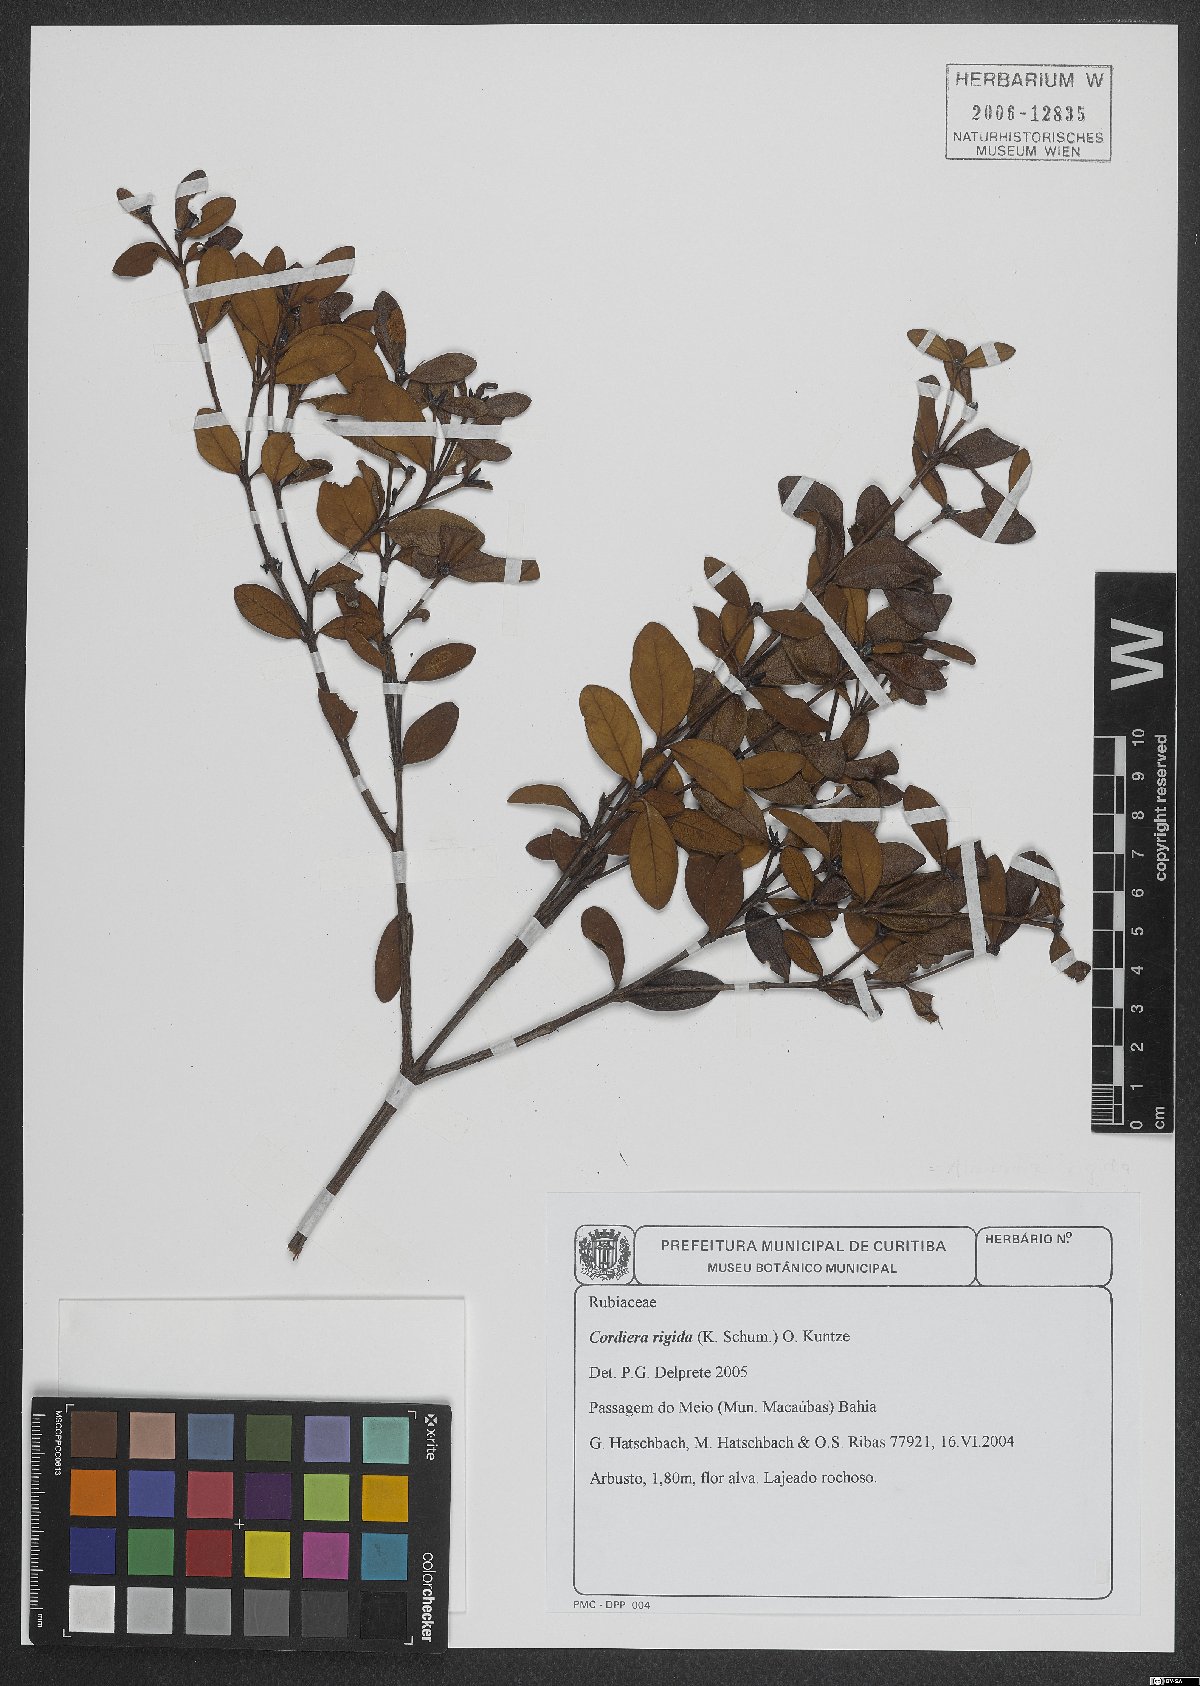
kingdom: Plantae
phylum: Tracheophyta
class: Magnoliopsida
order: Gentianales
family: Rubiaceae
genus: Cordiera
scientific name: Cordiera rigida
